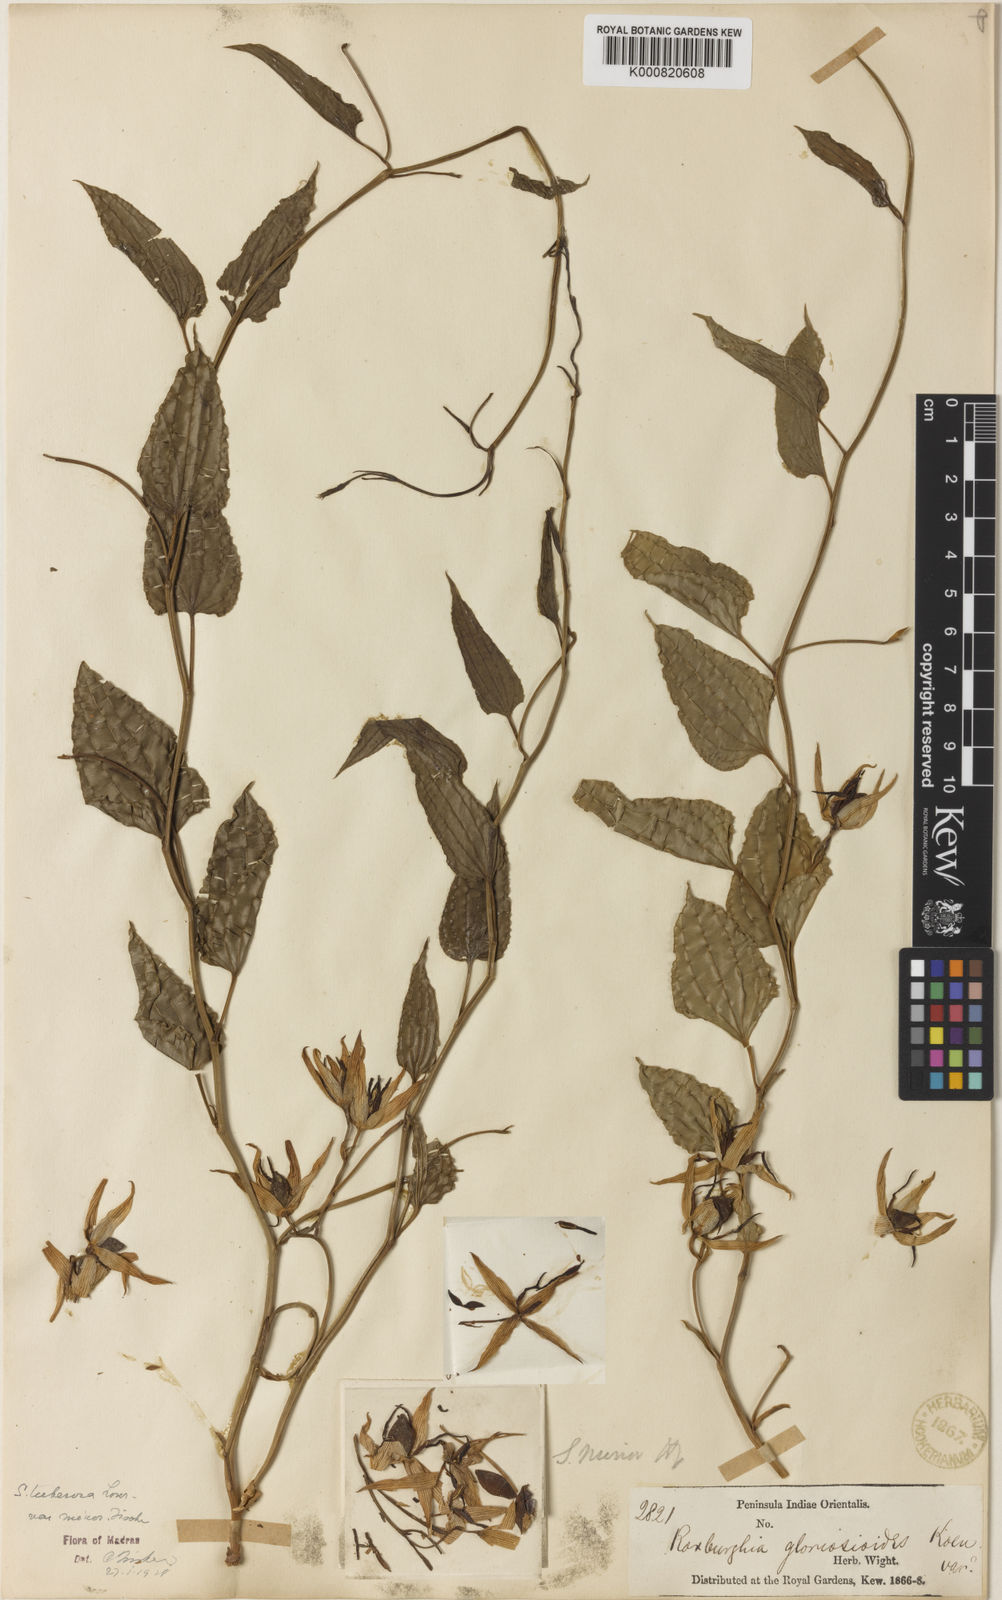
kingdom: Plantae
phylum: Tracheophyta
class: Liliopsida
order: Pandanales
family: Stemonaceae
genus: Stemona
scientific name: Stemona tuberosa
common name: Stemona
